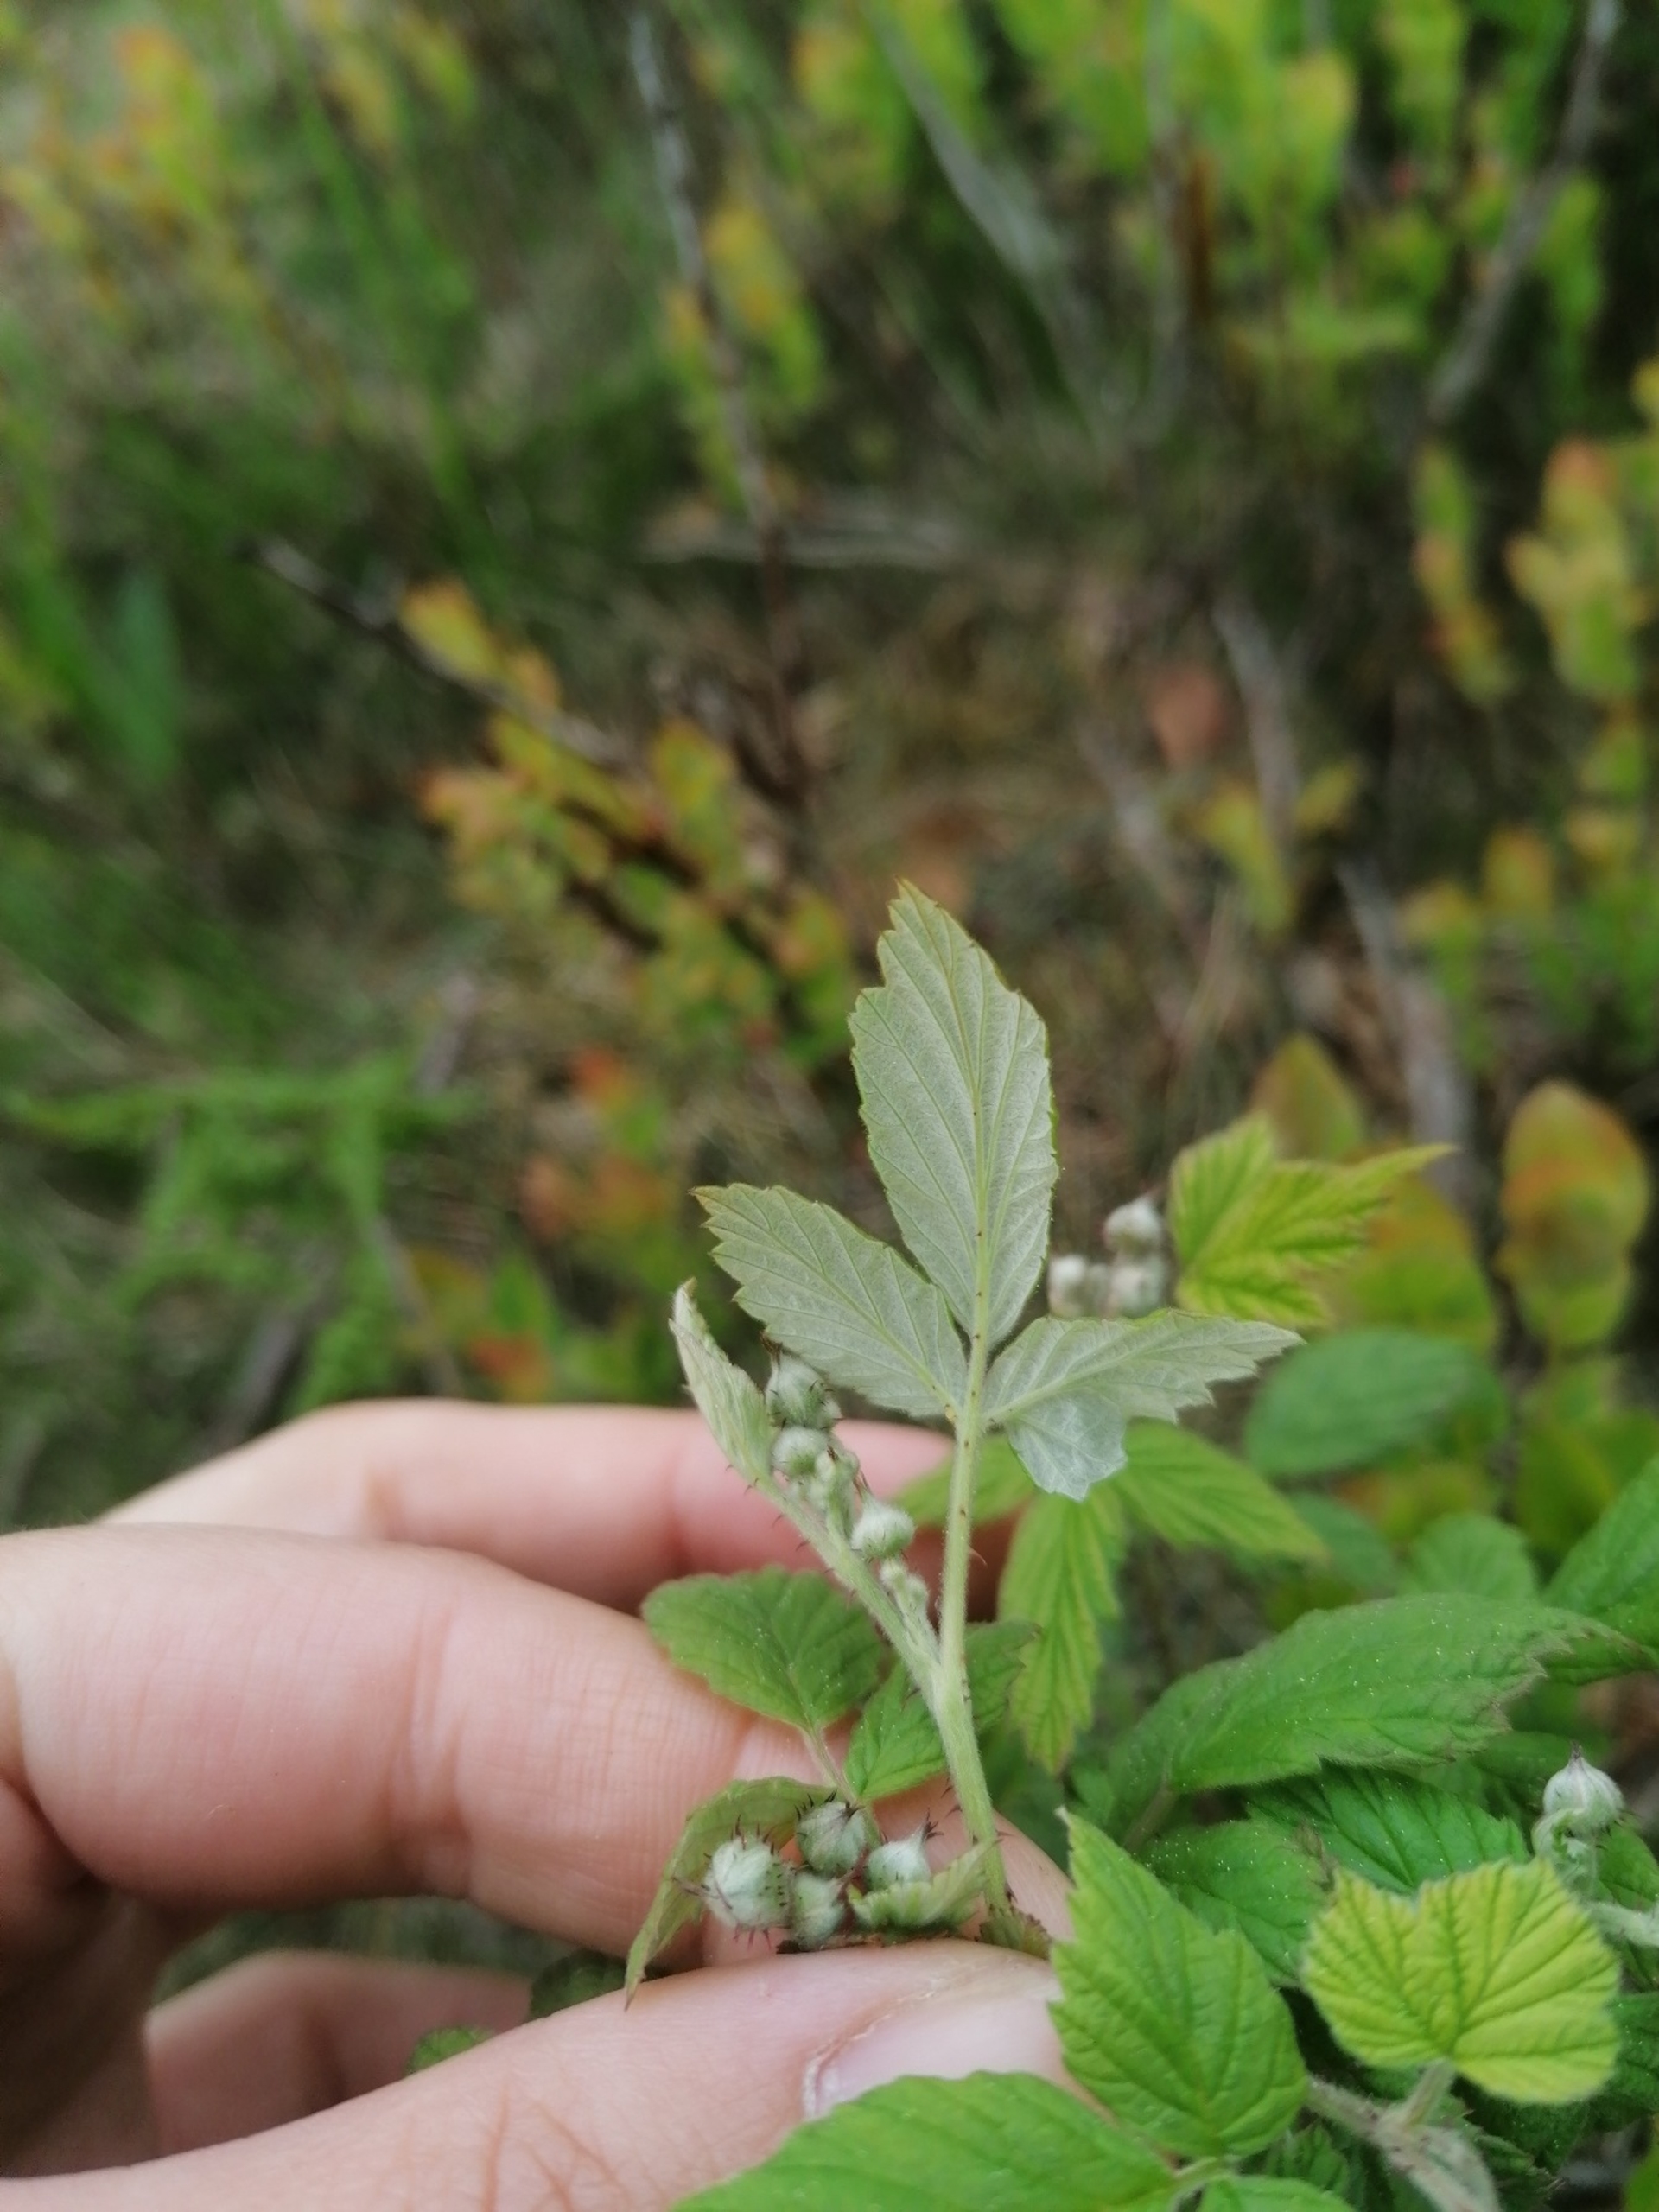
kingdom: Plantae
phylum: Tracheophyta
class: Magnoliopsida
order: Rosales
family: Rosaceae
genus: Rubus
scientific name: Rubus idaeus
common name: Hindbær
